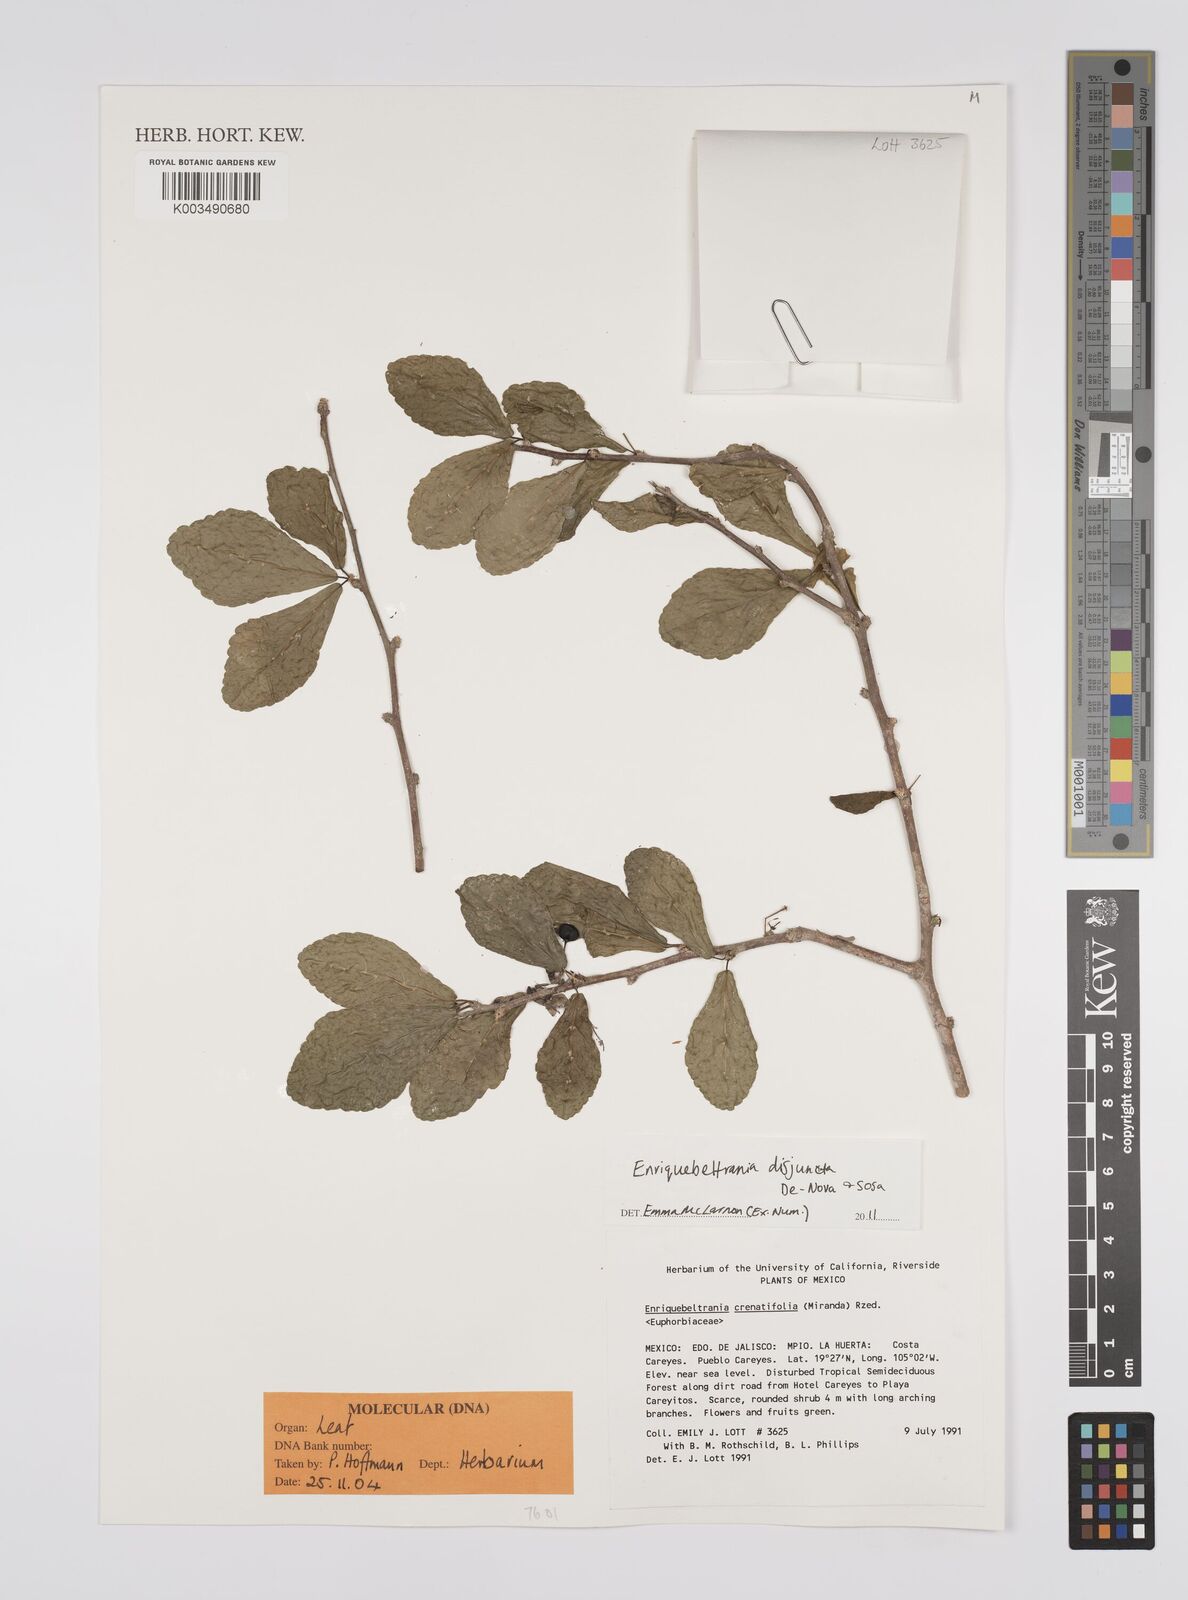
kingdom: Plantae
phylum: Tracheophyta
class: Magnoliopsida
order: Malpighiales
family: Euphorbiaceae
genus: Enriquebeltrania
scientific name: Enriquebeltrania disjuncta
